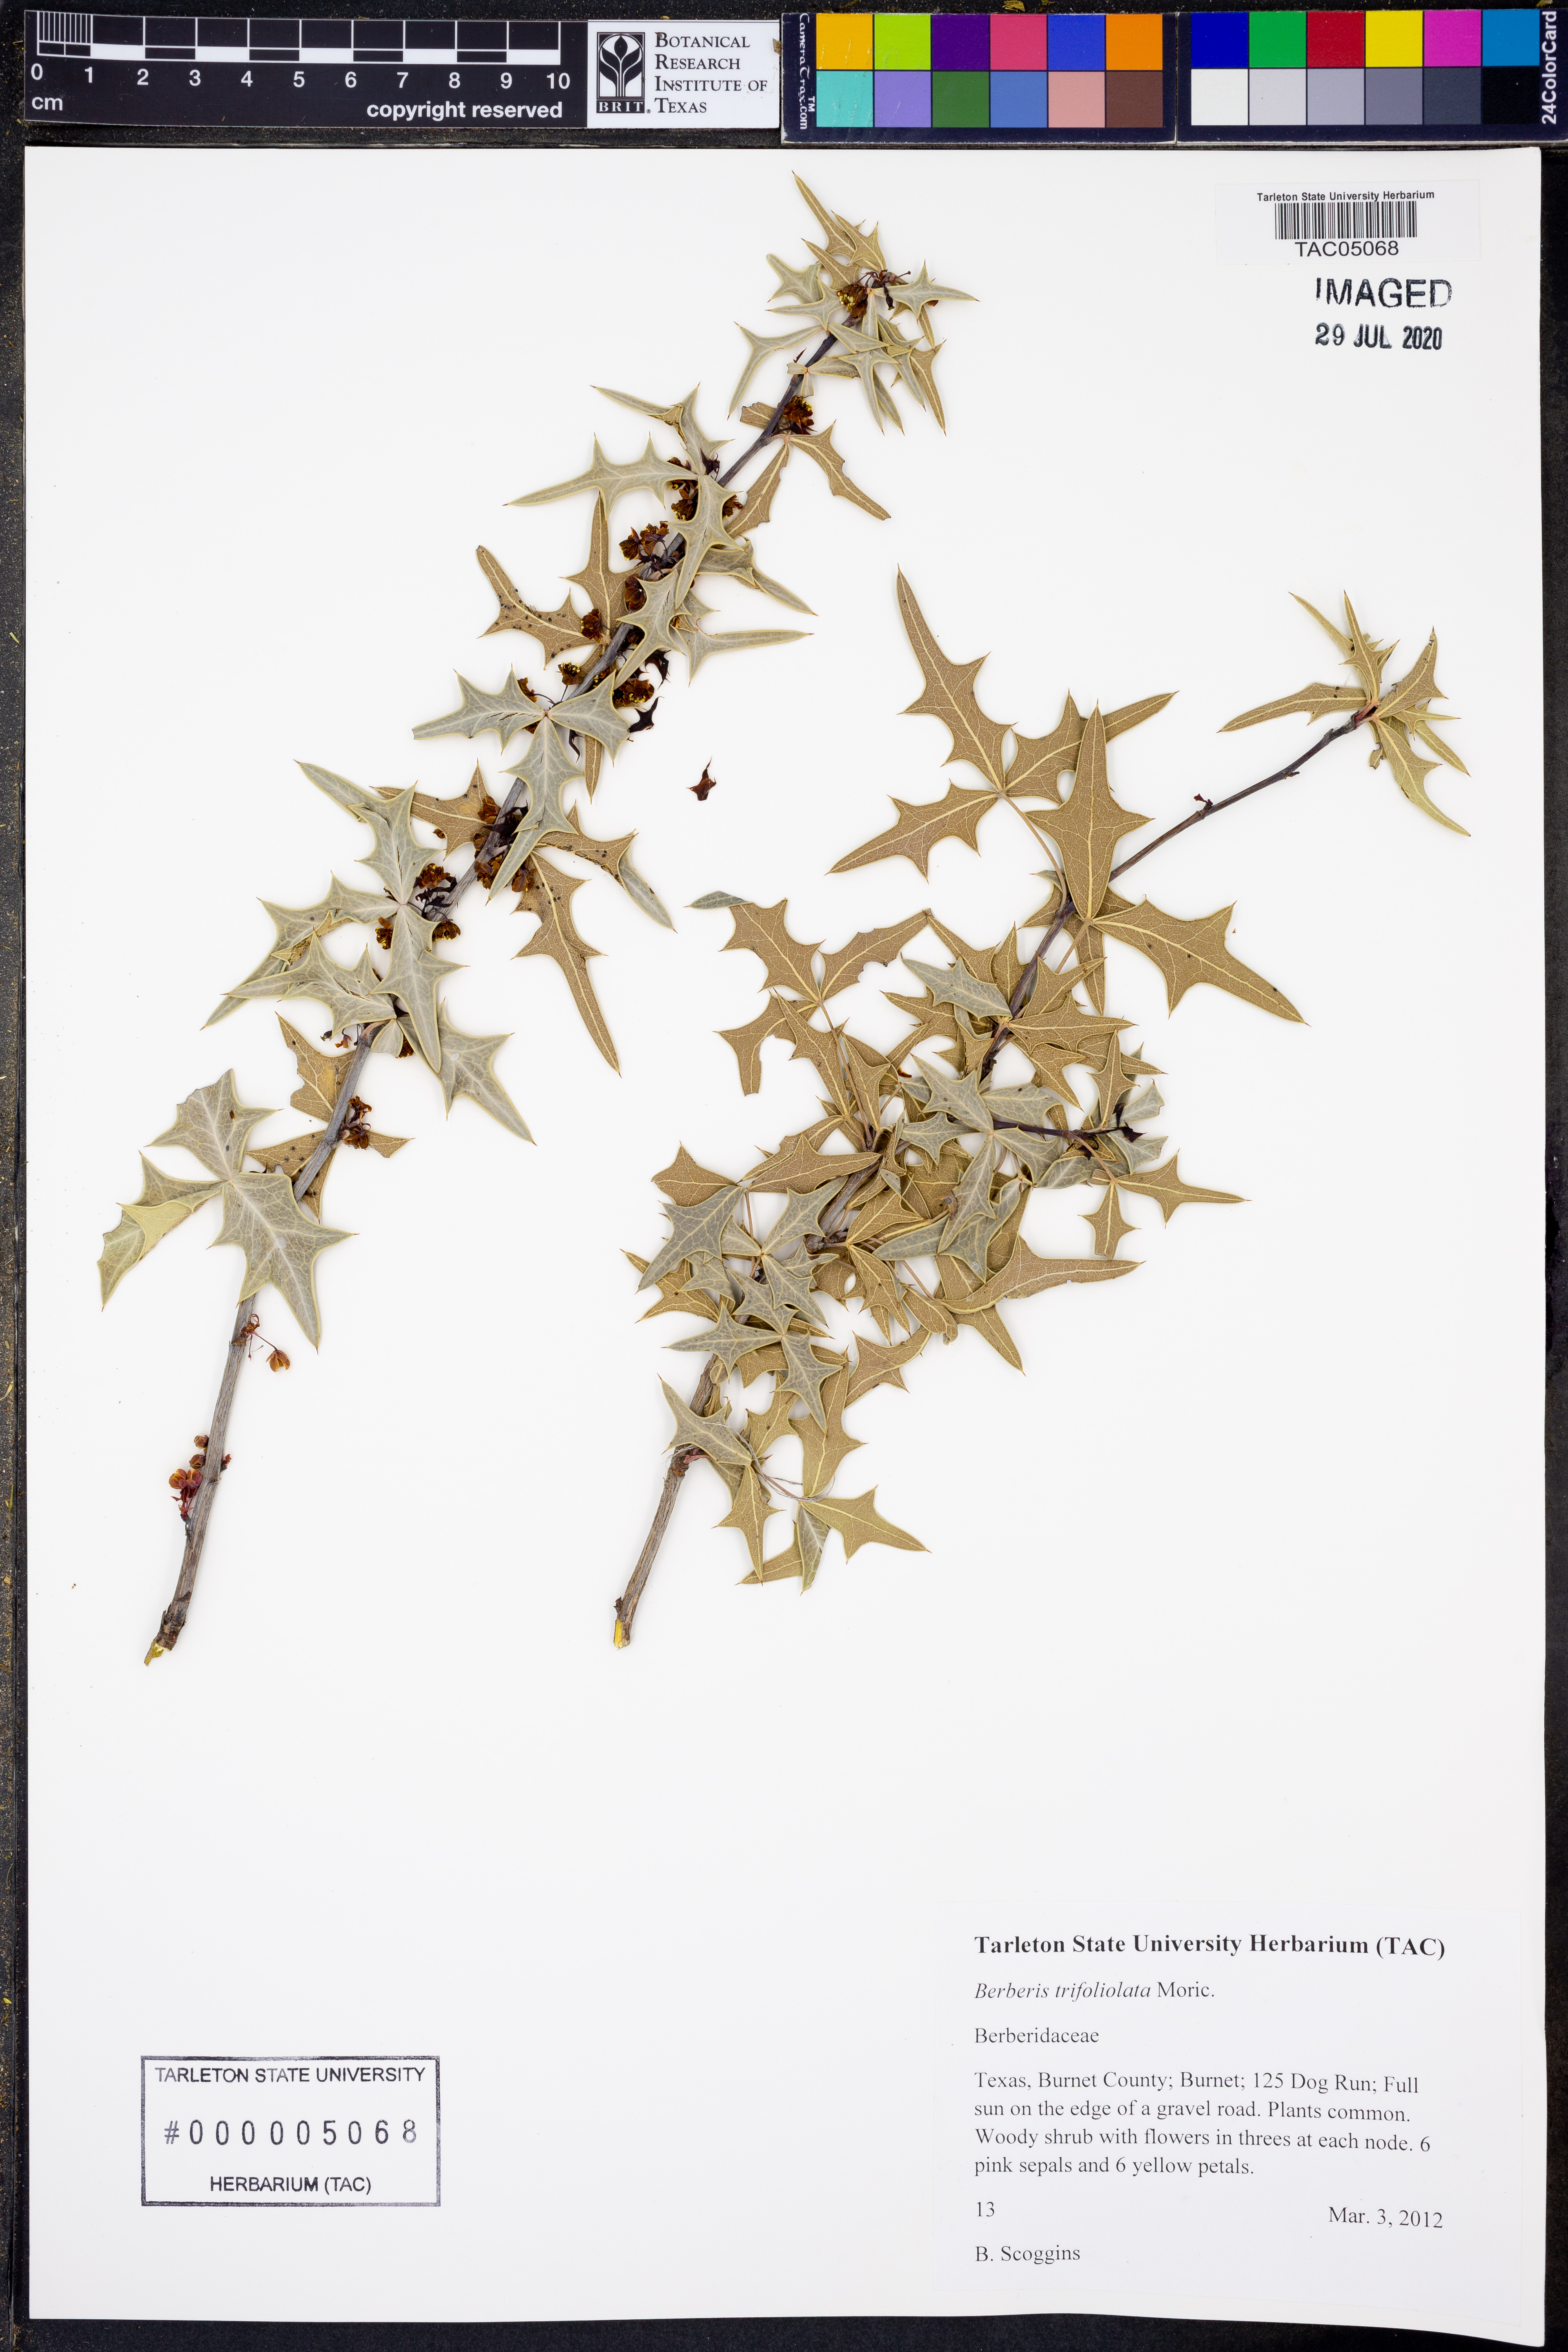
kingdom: Plantae
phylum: Tracheophyta
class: Magnoliopsida
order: Ranunculales
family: Berberidaceae
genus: Alloberberis
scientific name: Alloberberis trifoliolata
